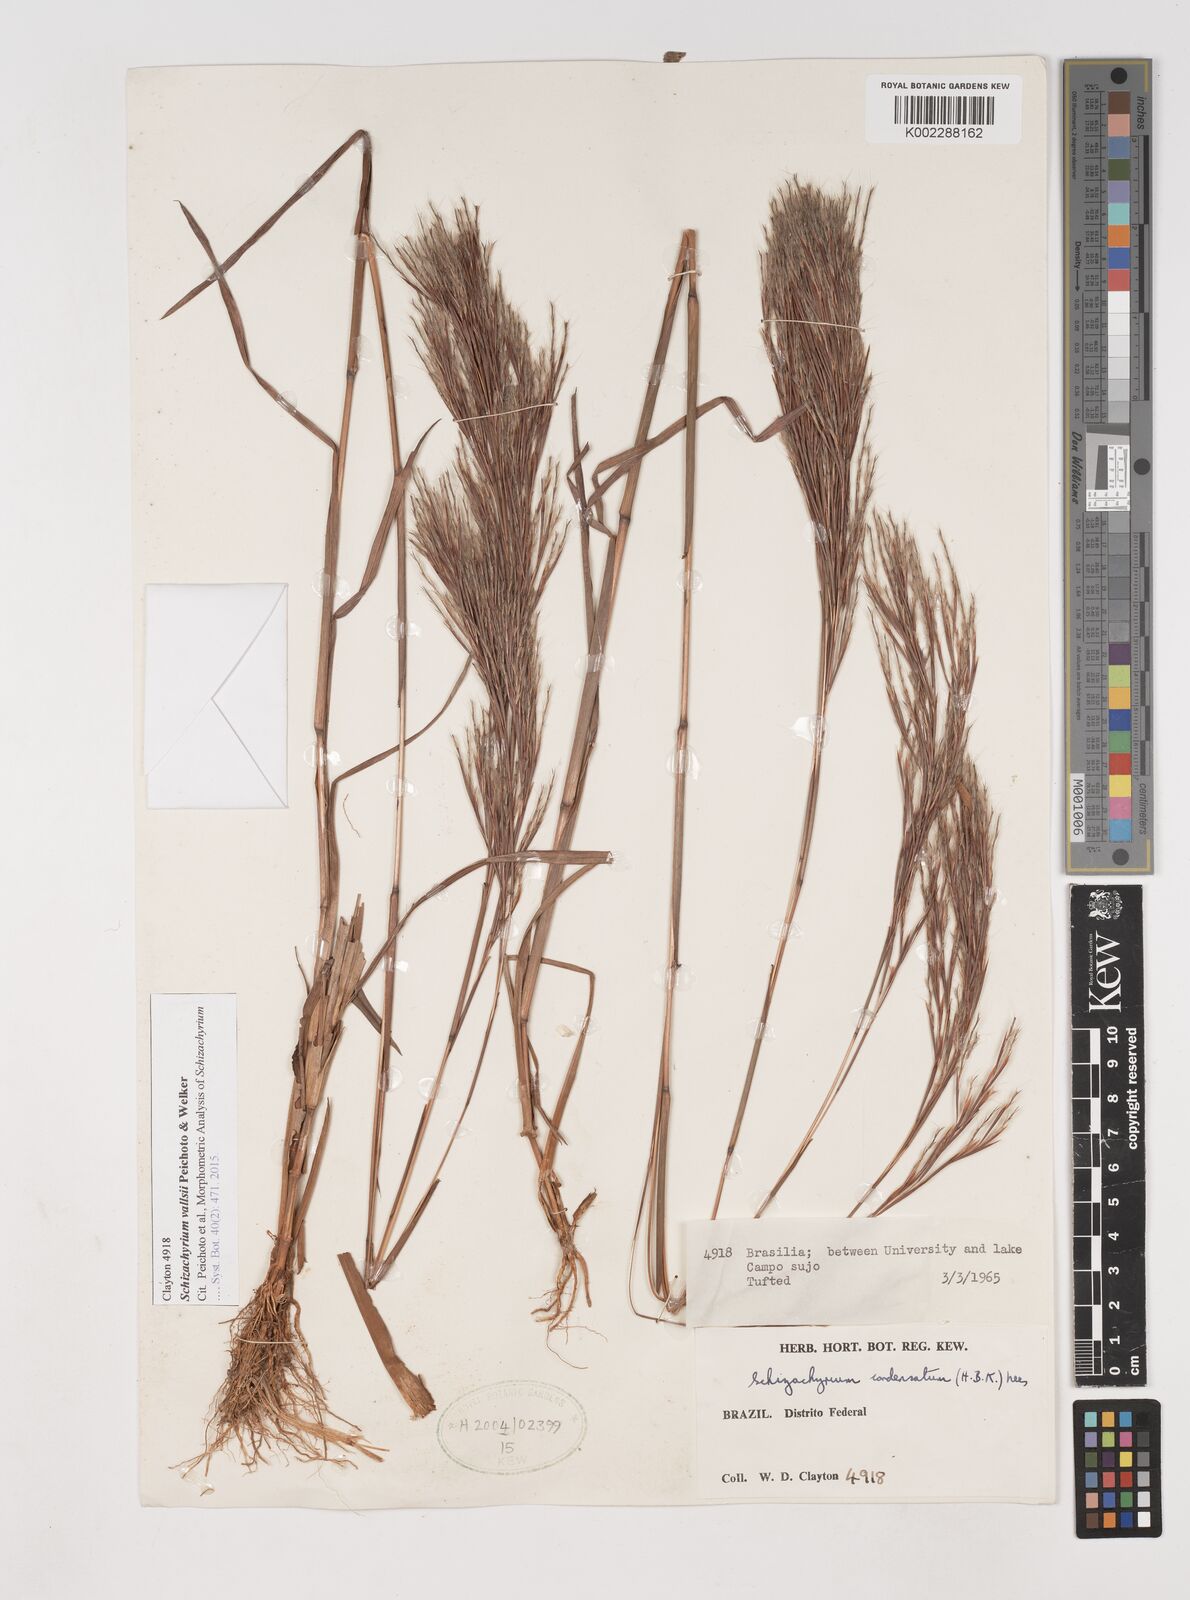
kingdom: Plantae
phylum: Tracheophyta
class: Liliopsida
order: Poales
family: Poaceae
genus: Schizachyrium
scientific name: Schizachyrium vallsii
